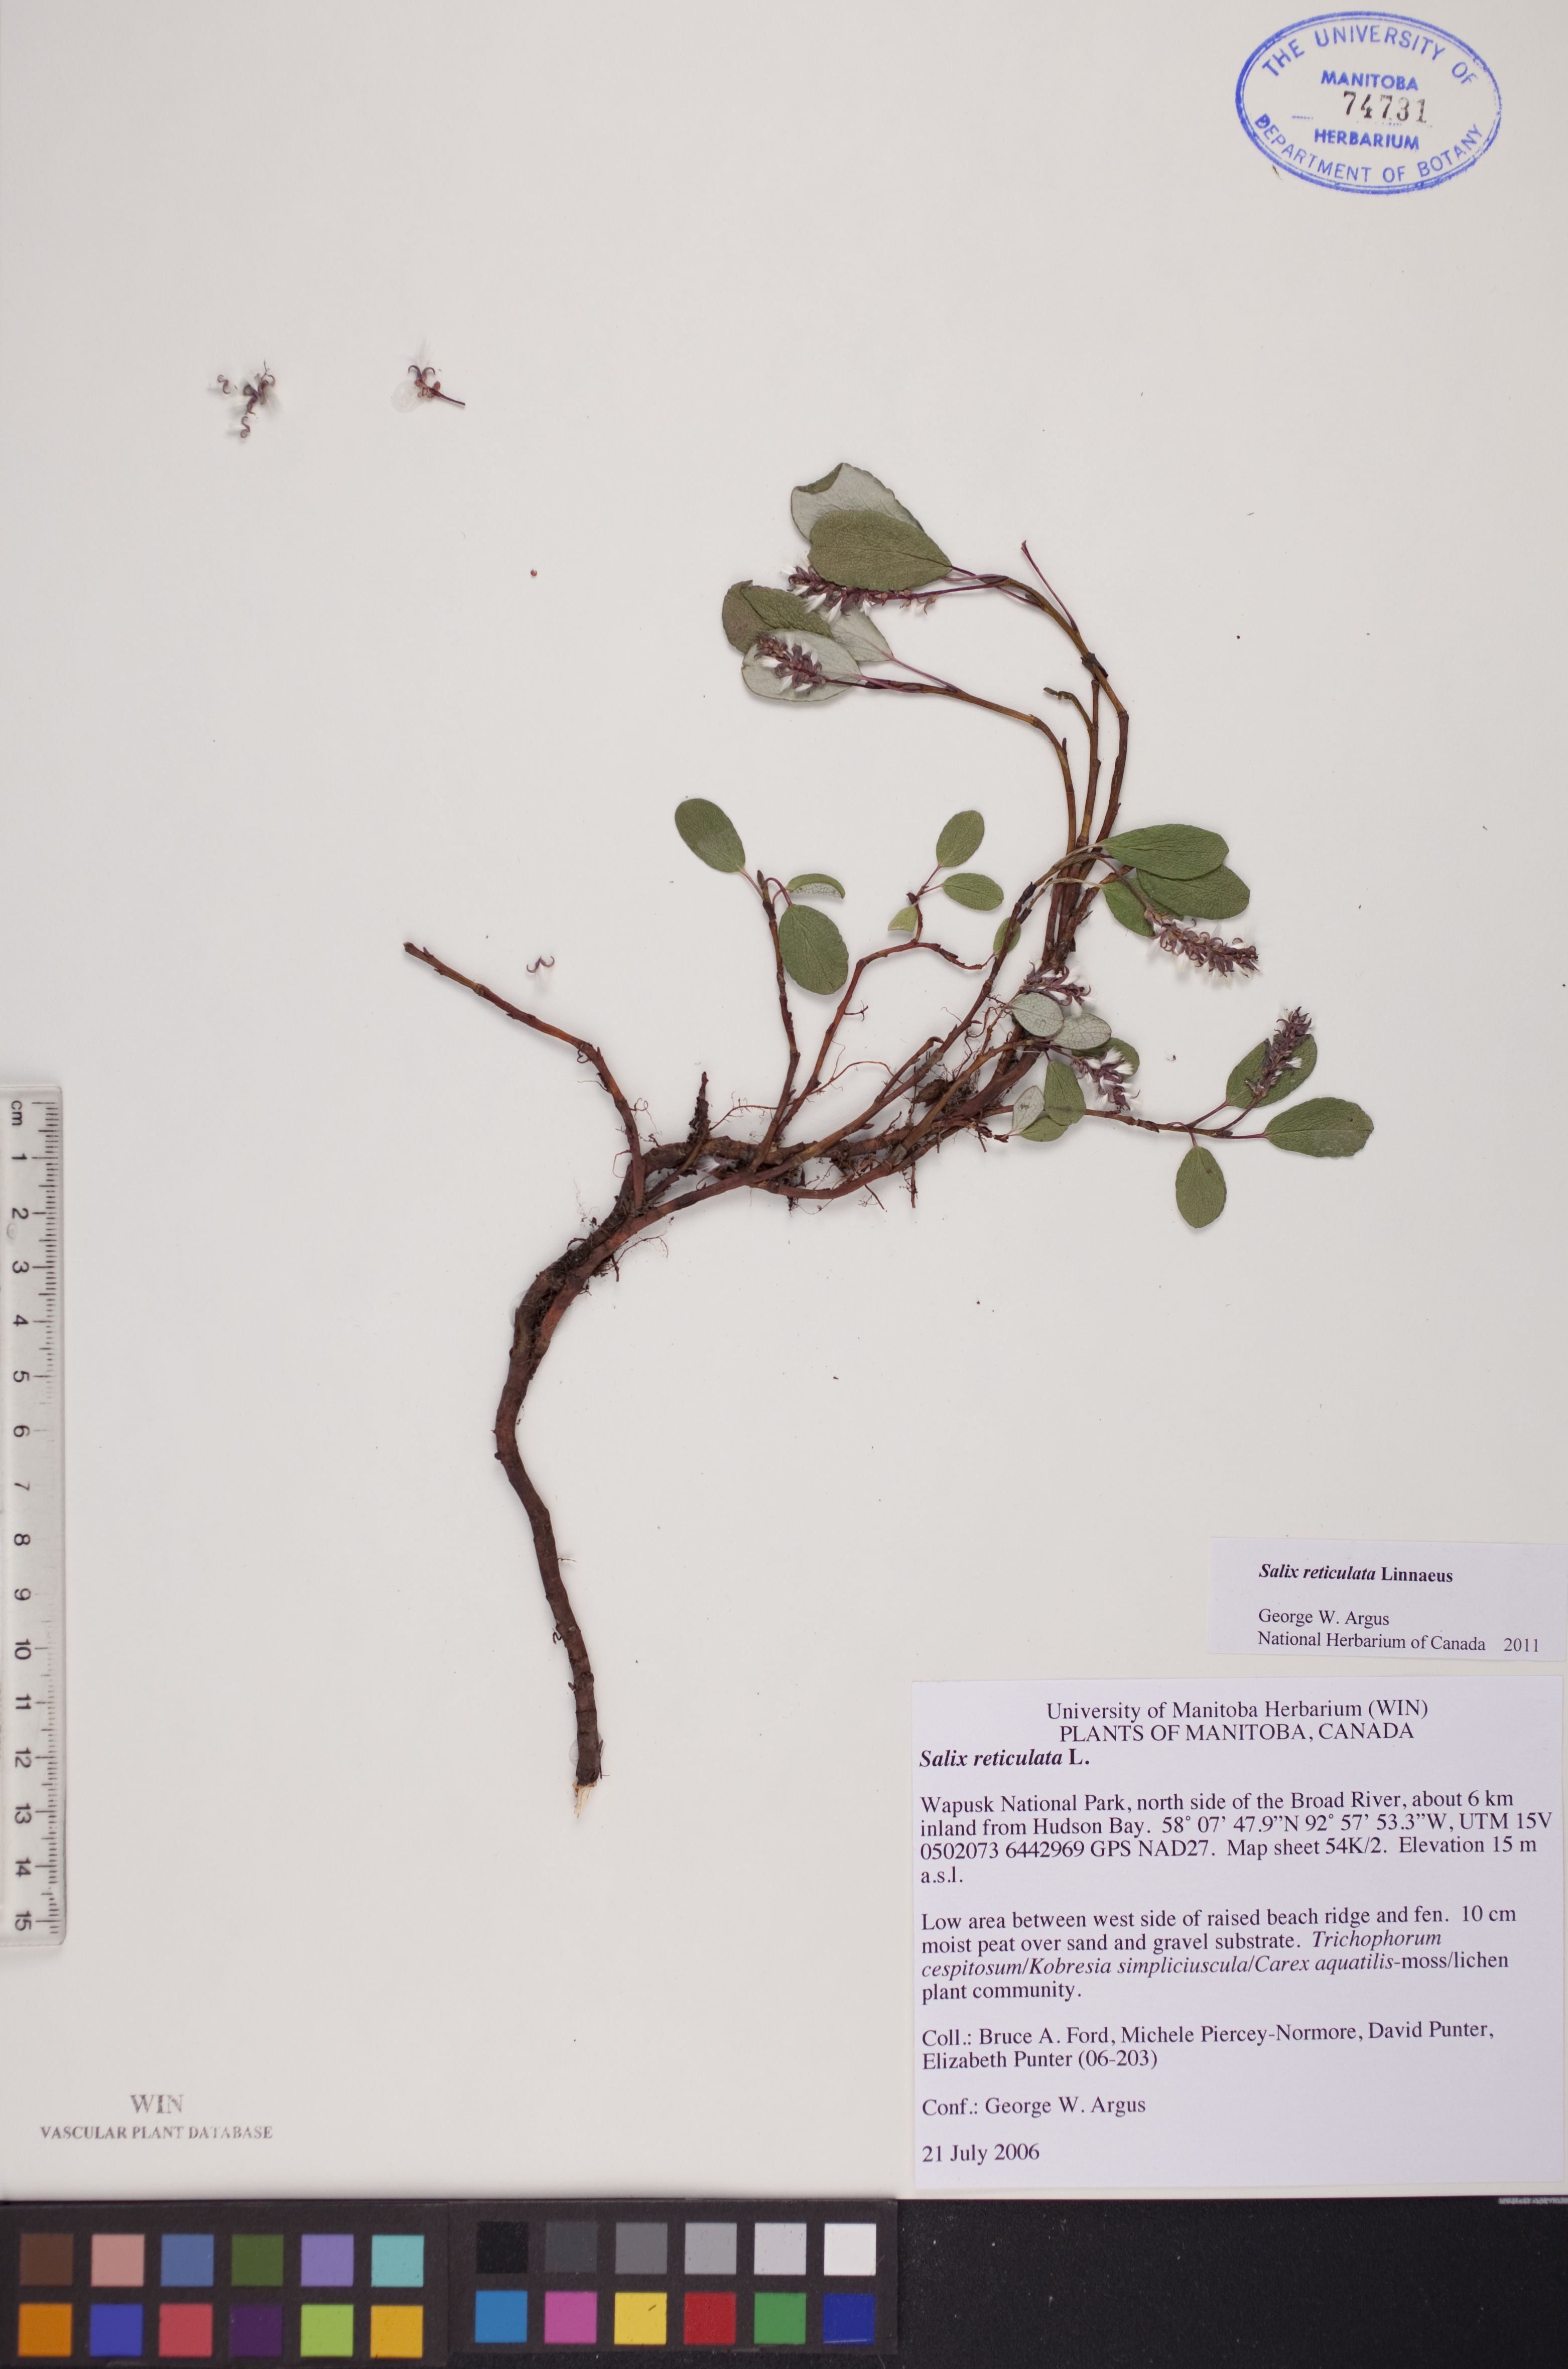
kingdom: Plantae
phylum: Tracheophyta
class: Magnoliopsida
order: Malpighiales
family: Salicaceae
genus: Salix
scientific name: Salix reticulata
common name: Net-leaved willow
